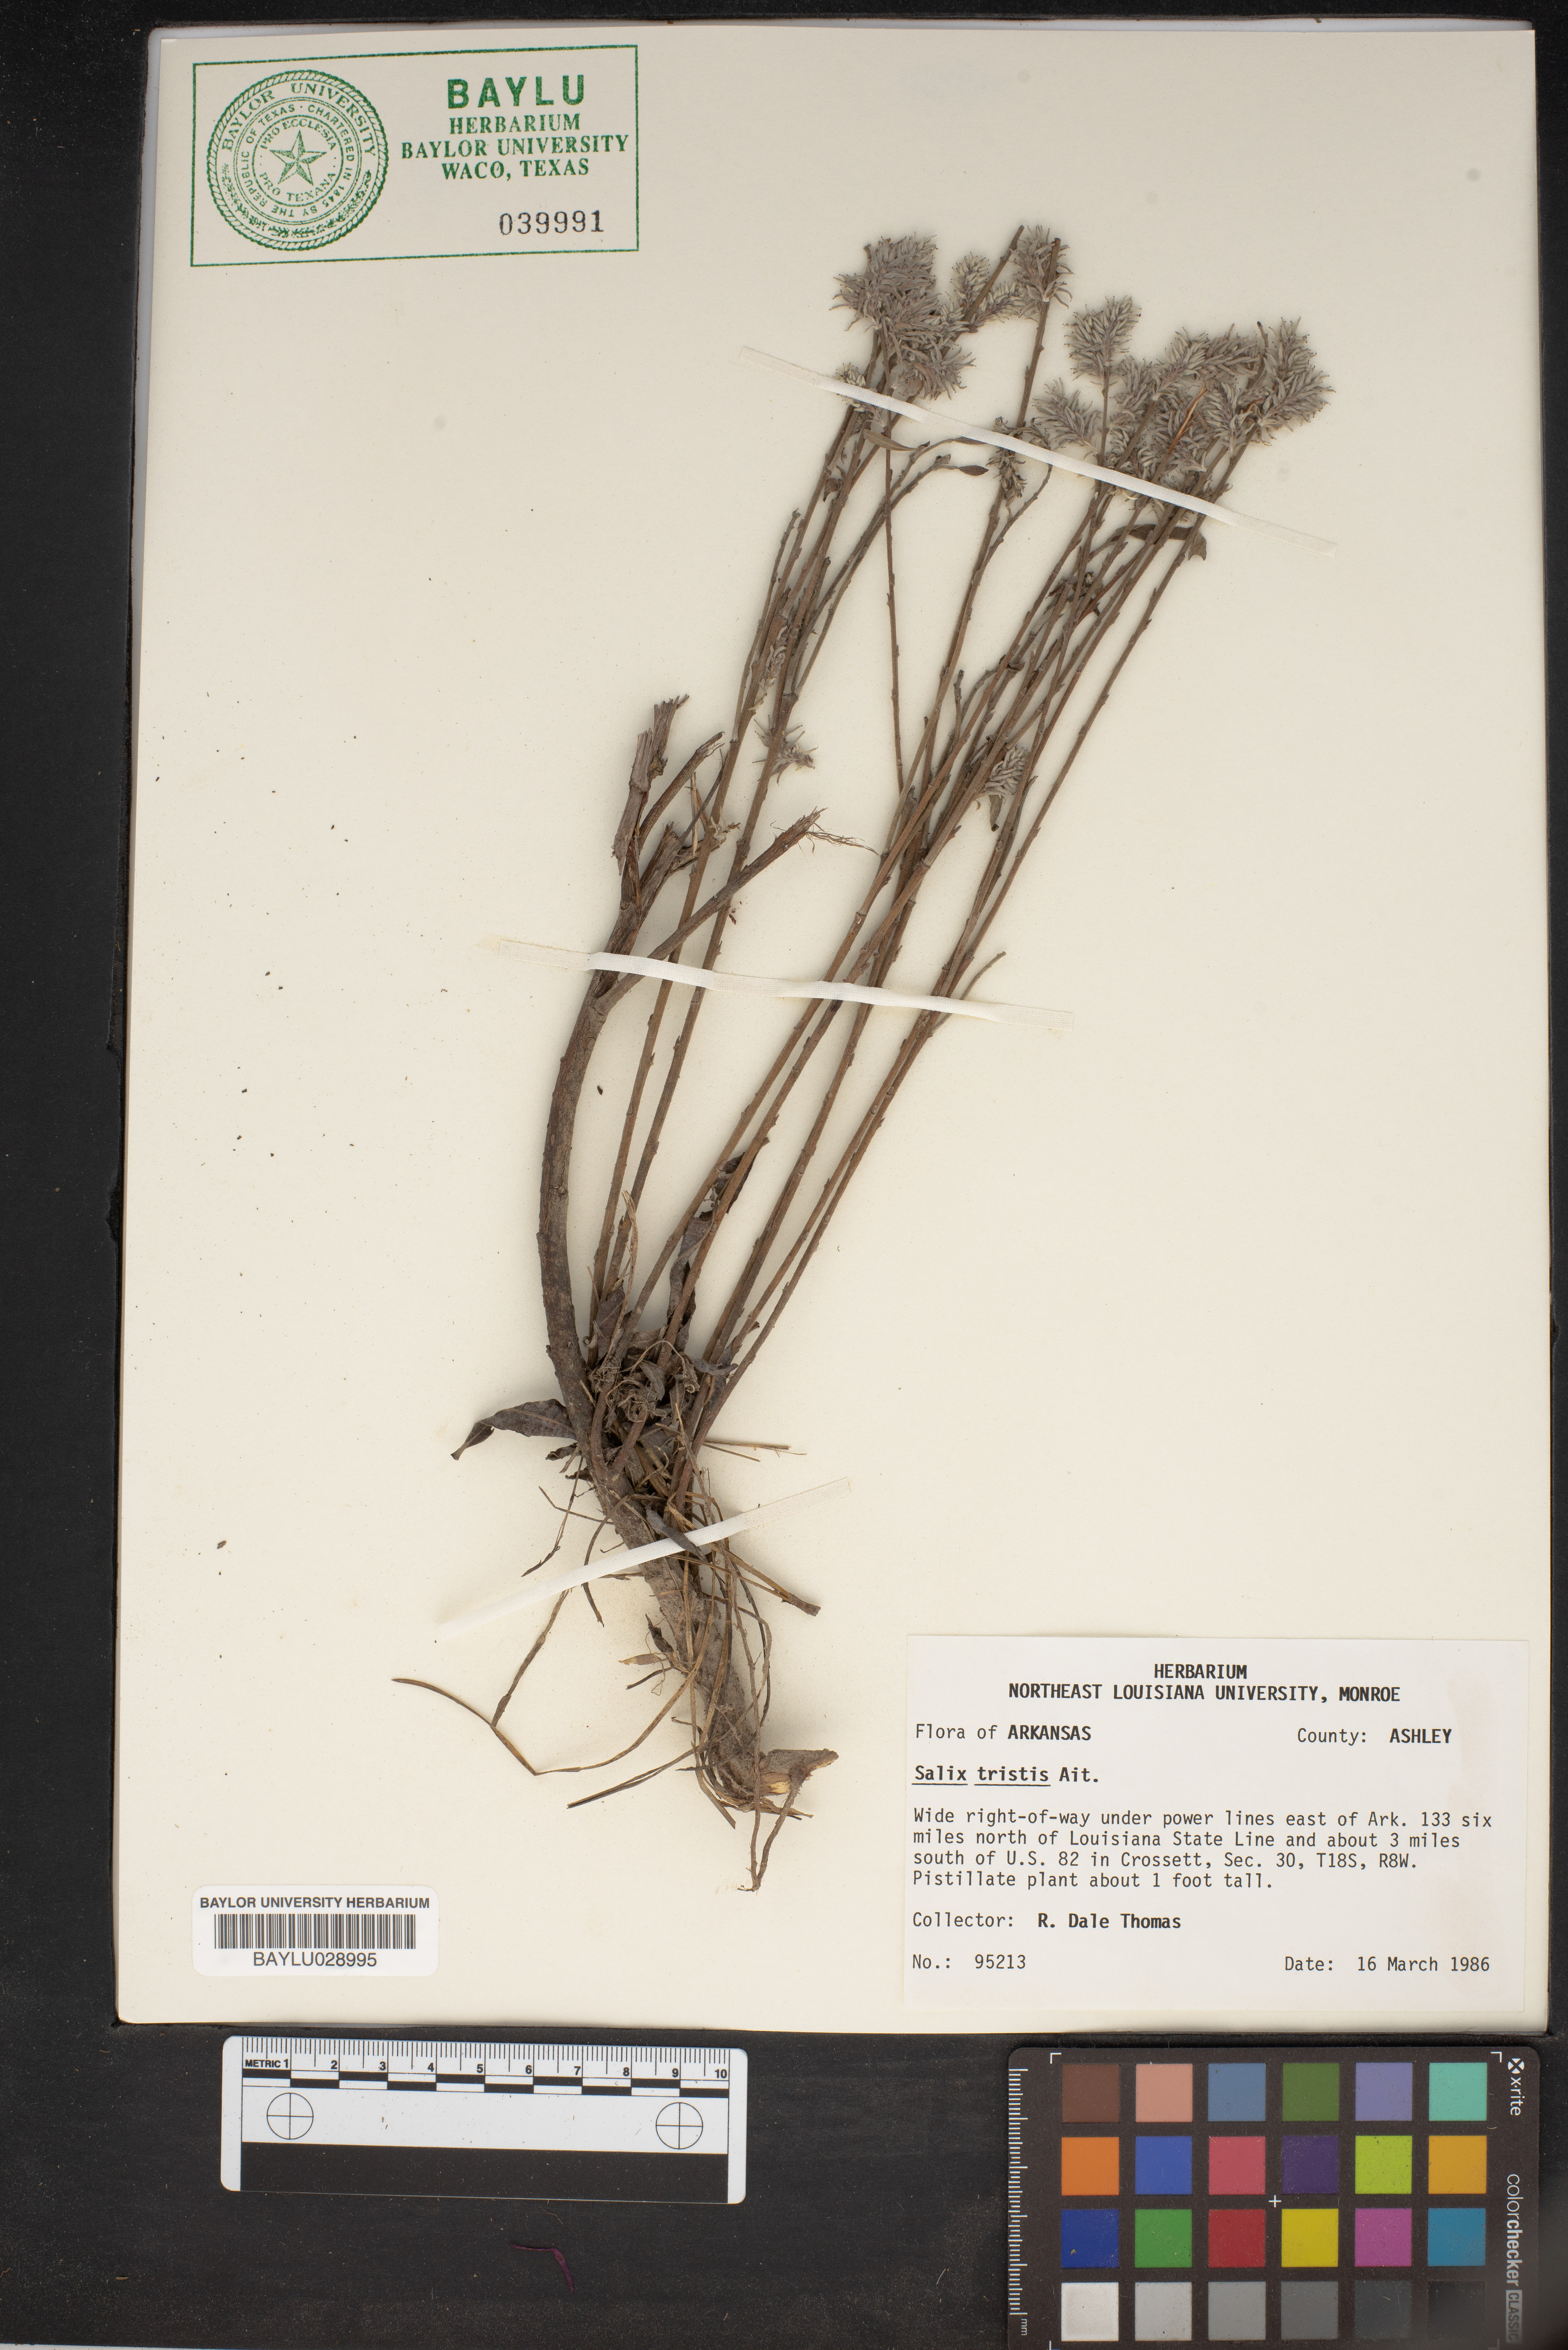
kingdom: Plantae
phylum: Tracheophyta
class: Magnoliopsida
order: Malpighiales
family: Salicaceae
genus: Salix
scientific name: Salix humilis
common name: Prairie willow
